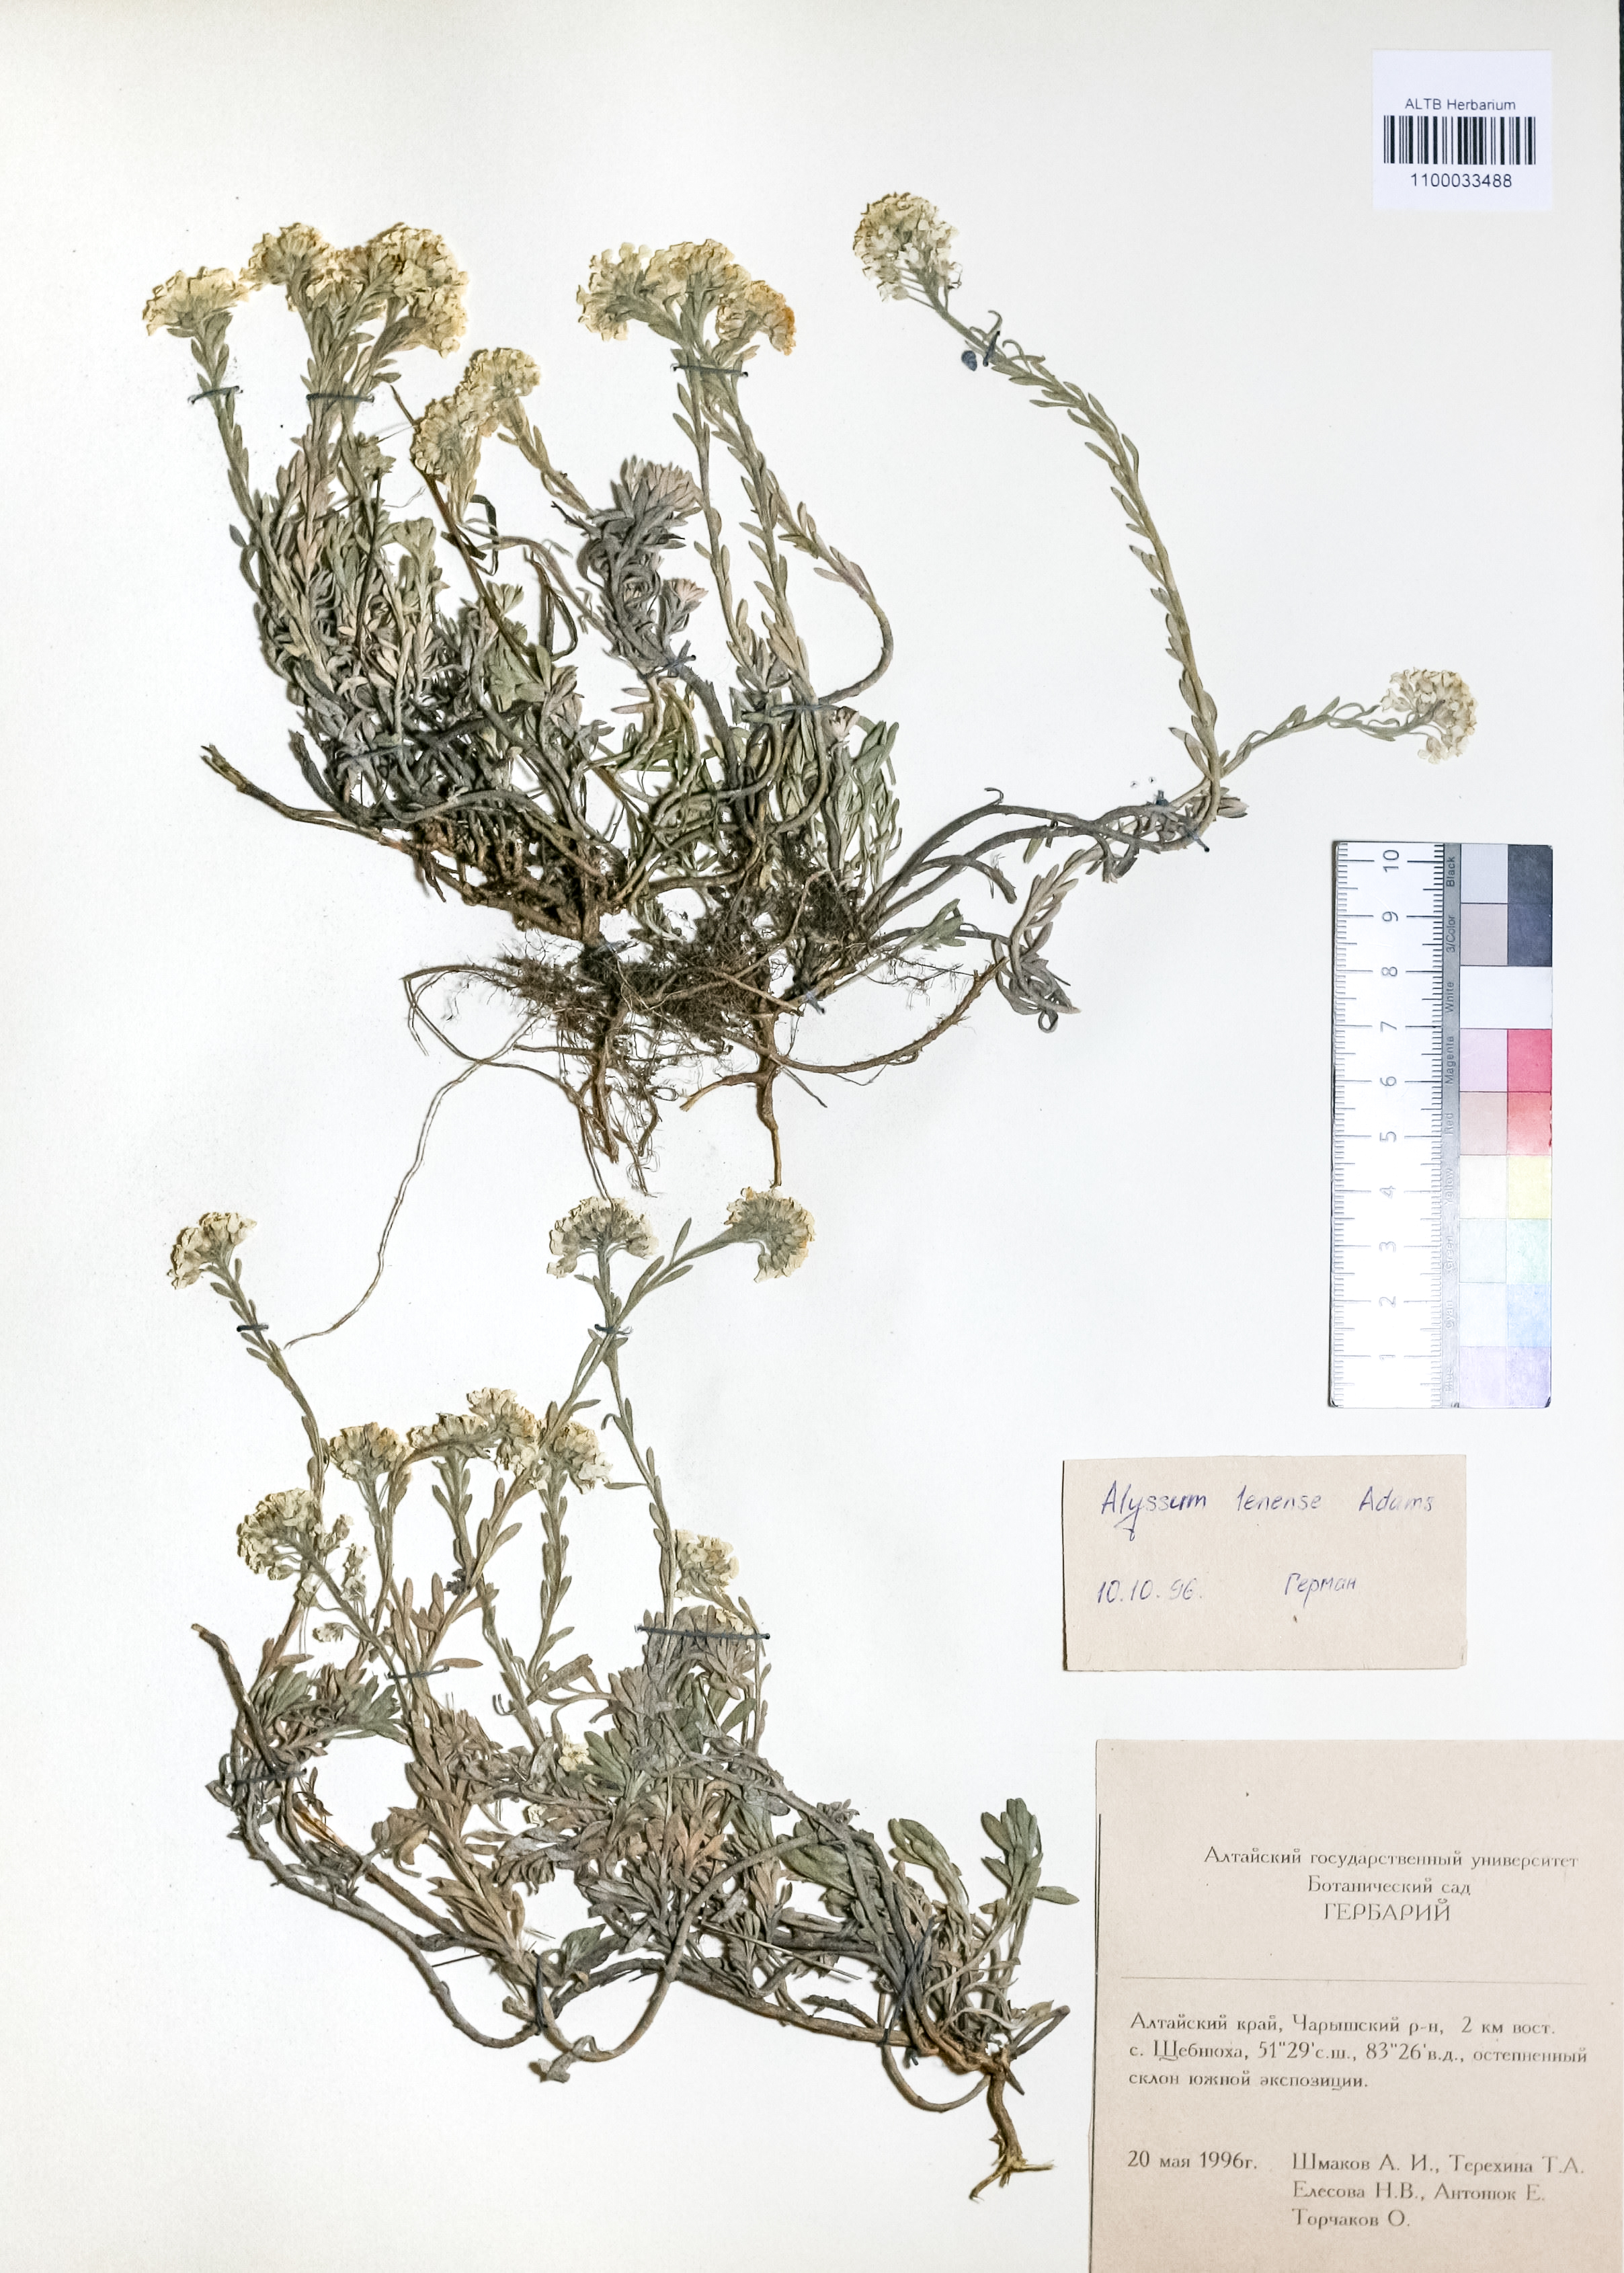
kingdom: Plantae
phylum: Tracheophyta
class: Magnoliopsida
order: Brassicales
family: Brassicaceae
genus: Alyssum
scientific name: Alyssum lenense
